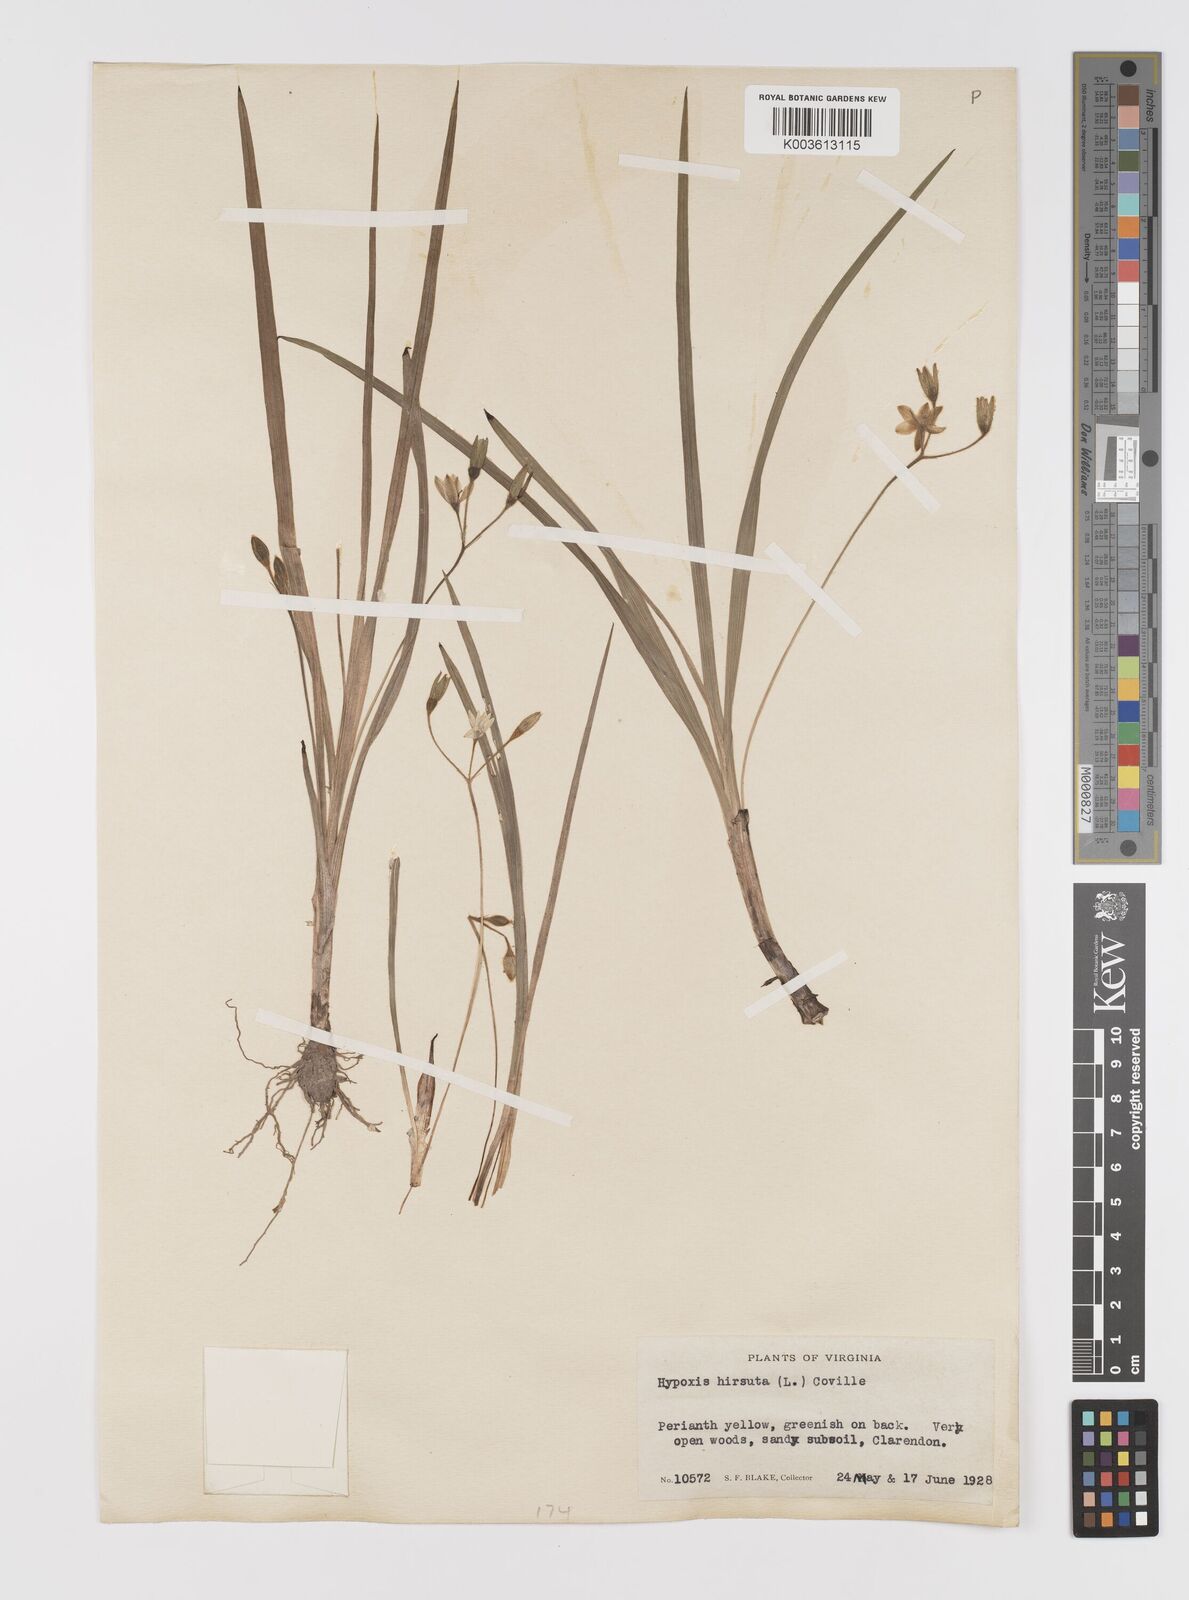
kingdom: Plantae
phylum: Tracheophyta
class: Liliopsida
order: Asparagales
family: Hypoxidaceae
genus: Hypoxis
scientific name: Hypoxis hirsuta
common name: Common goldstar
